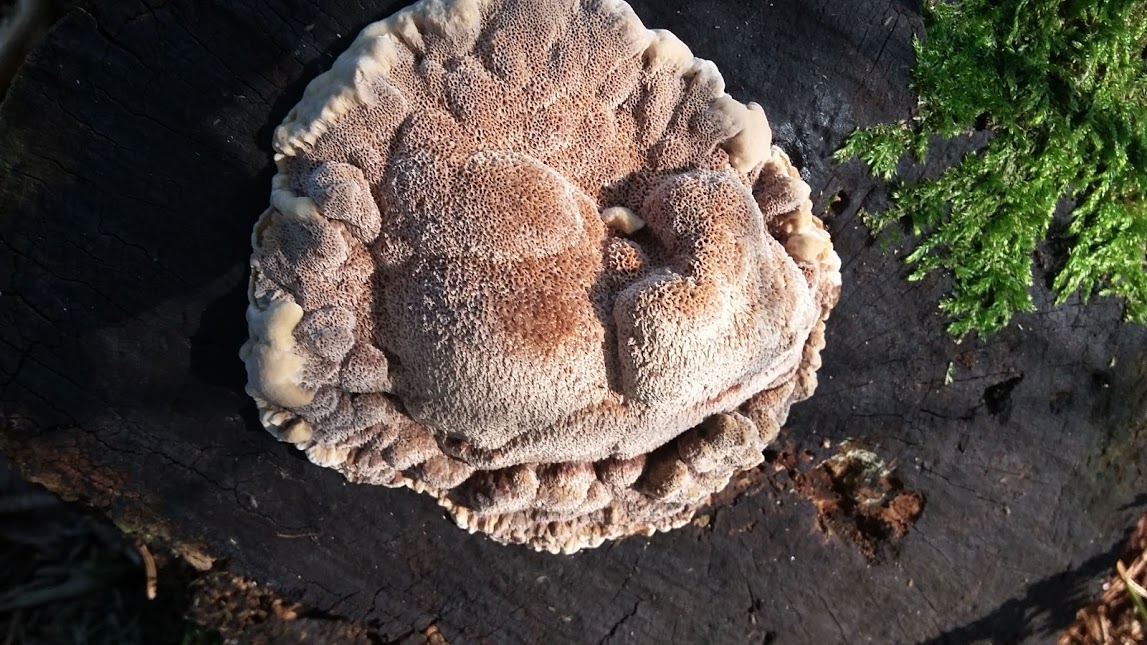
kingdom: Fungi
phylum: Basidiomycota
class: Agaricomycetes
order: Polyporales
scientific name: Polyporales
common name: poresvampordenen
